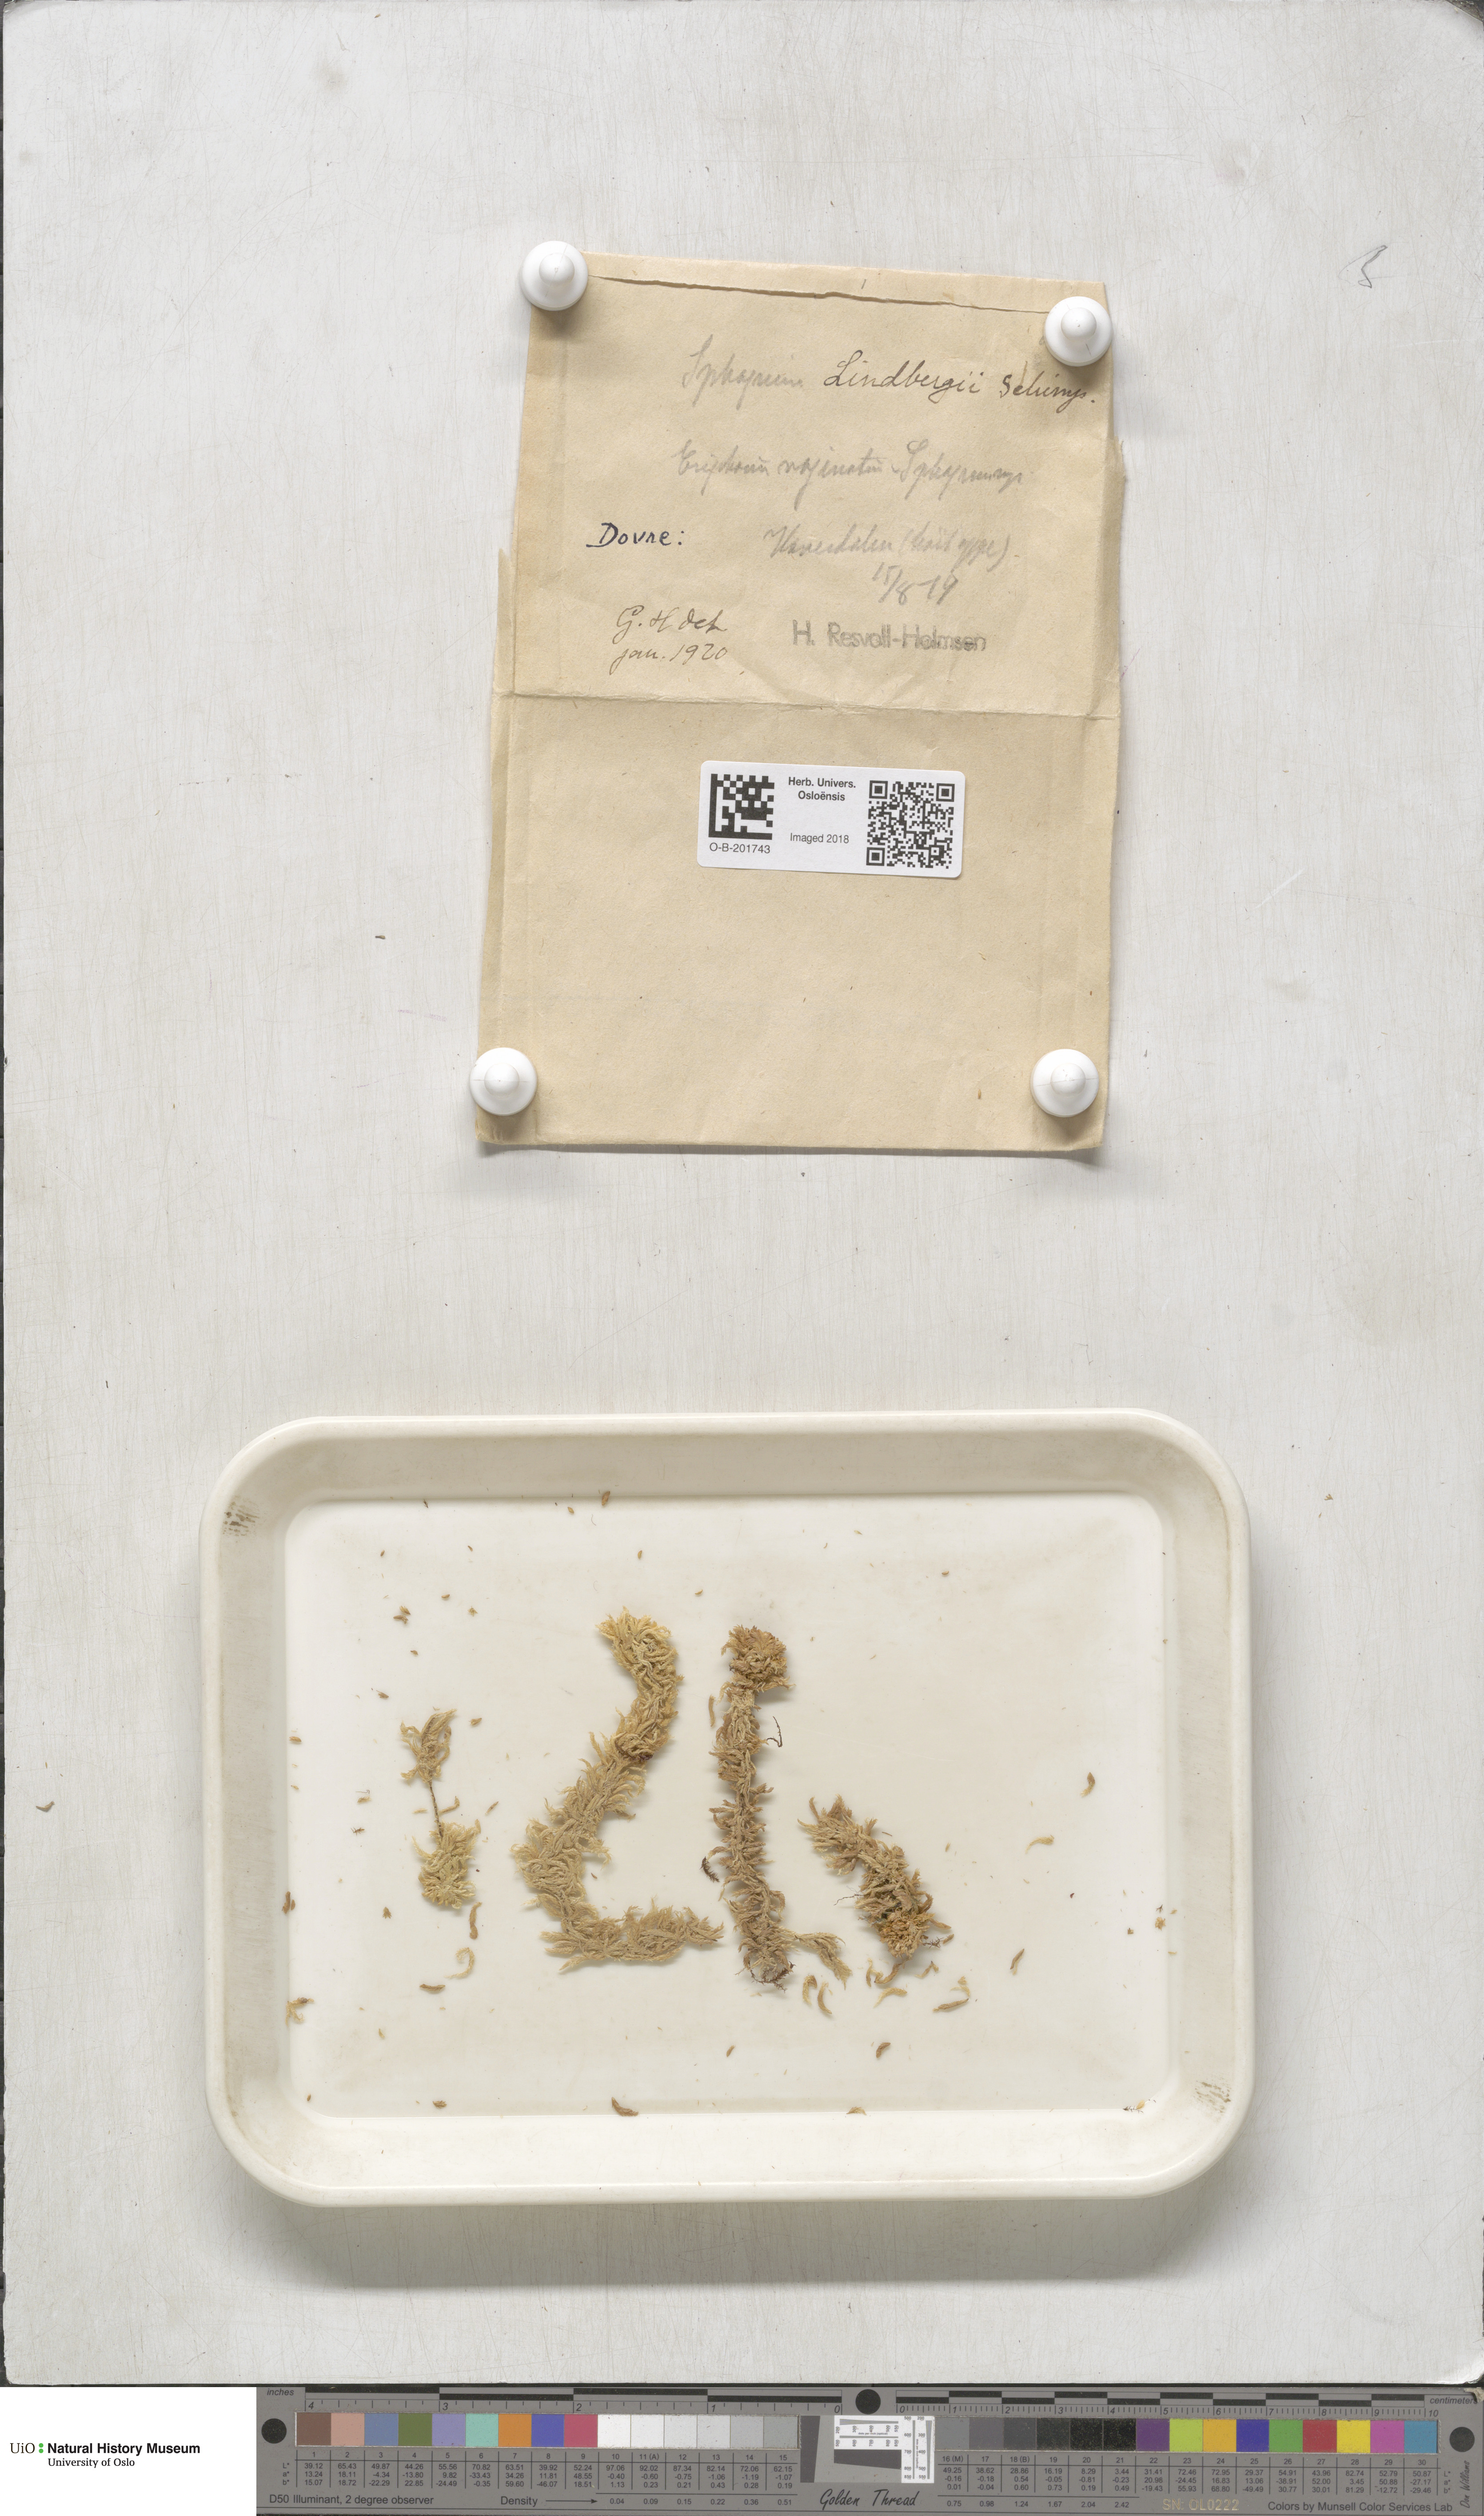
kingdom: Plantae
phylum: Bryophyta
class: Sphagnopsida
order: Sphagnales
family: Sphagnaceae
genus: Sphagnum
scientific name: Sphagnum lindbergii
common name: Lindberg's peat moss
